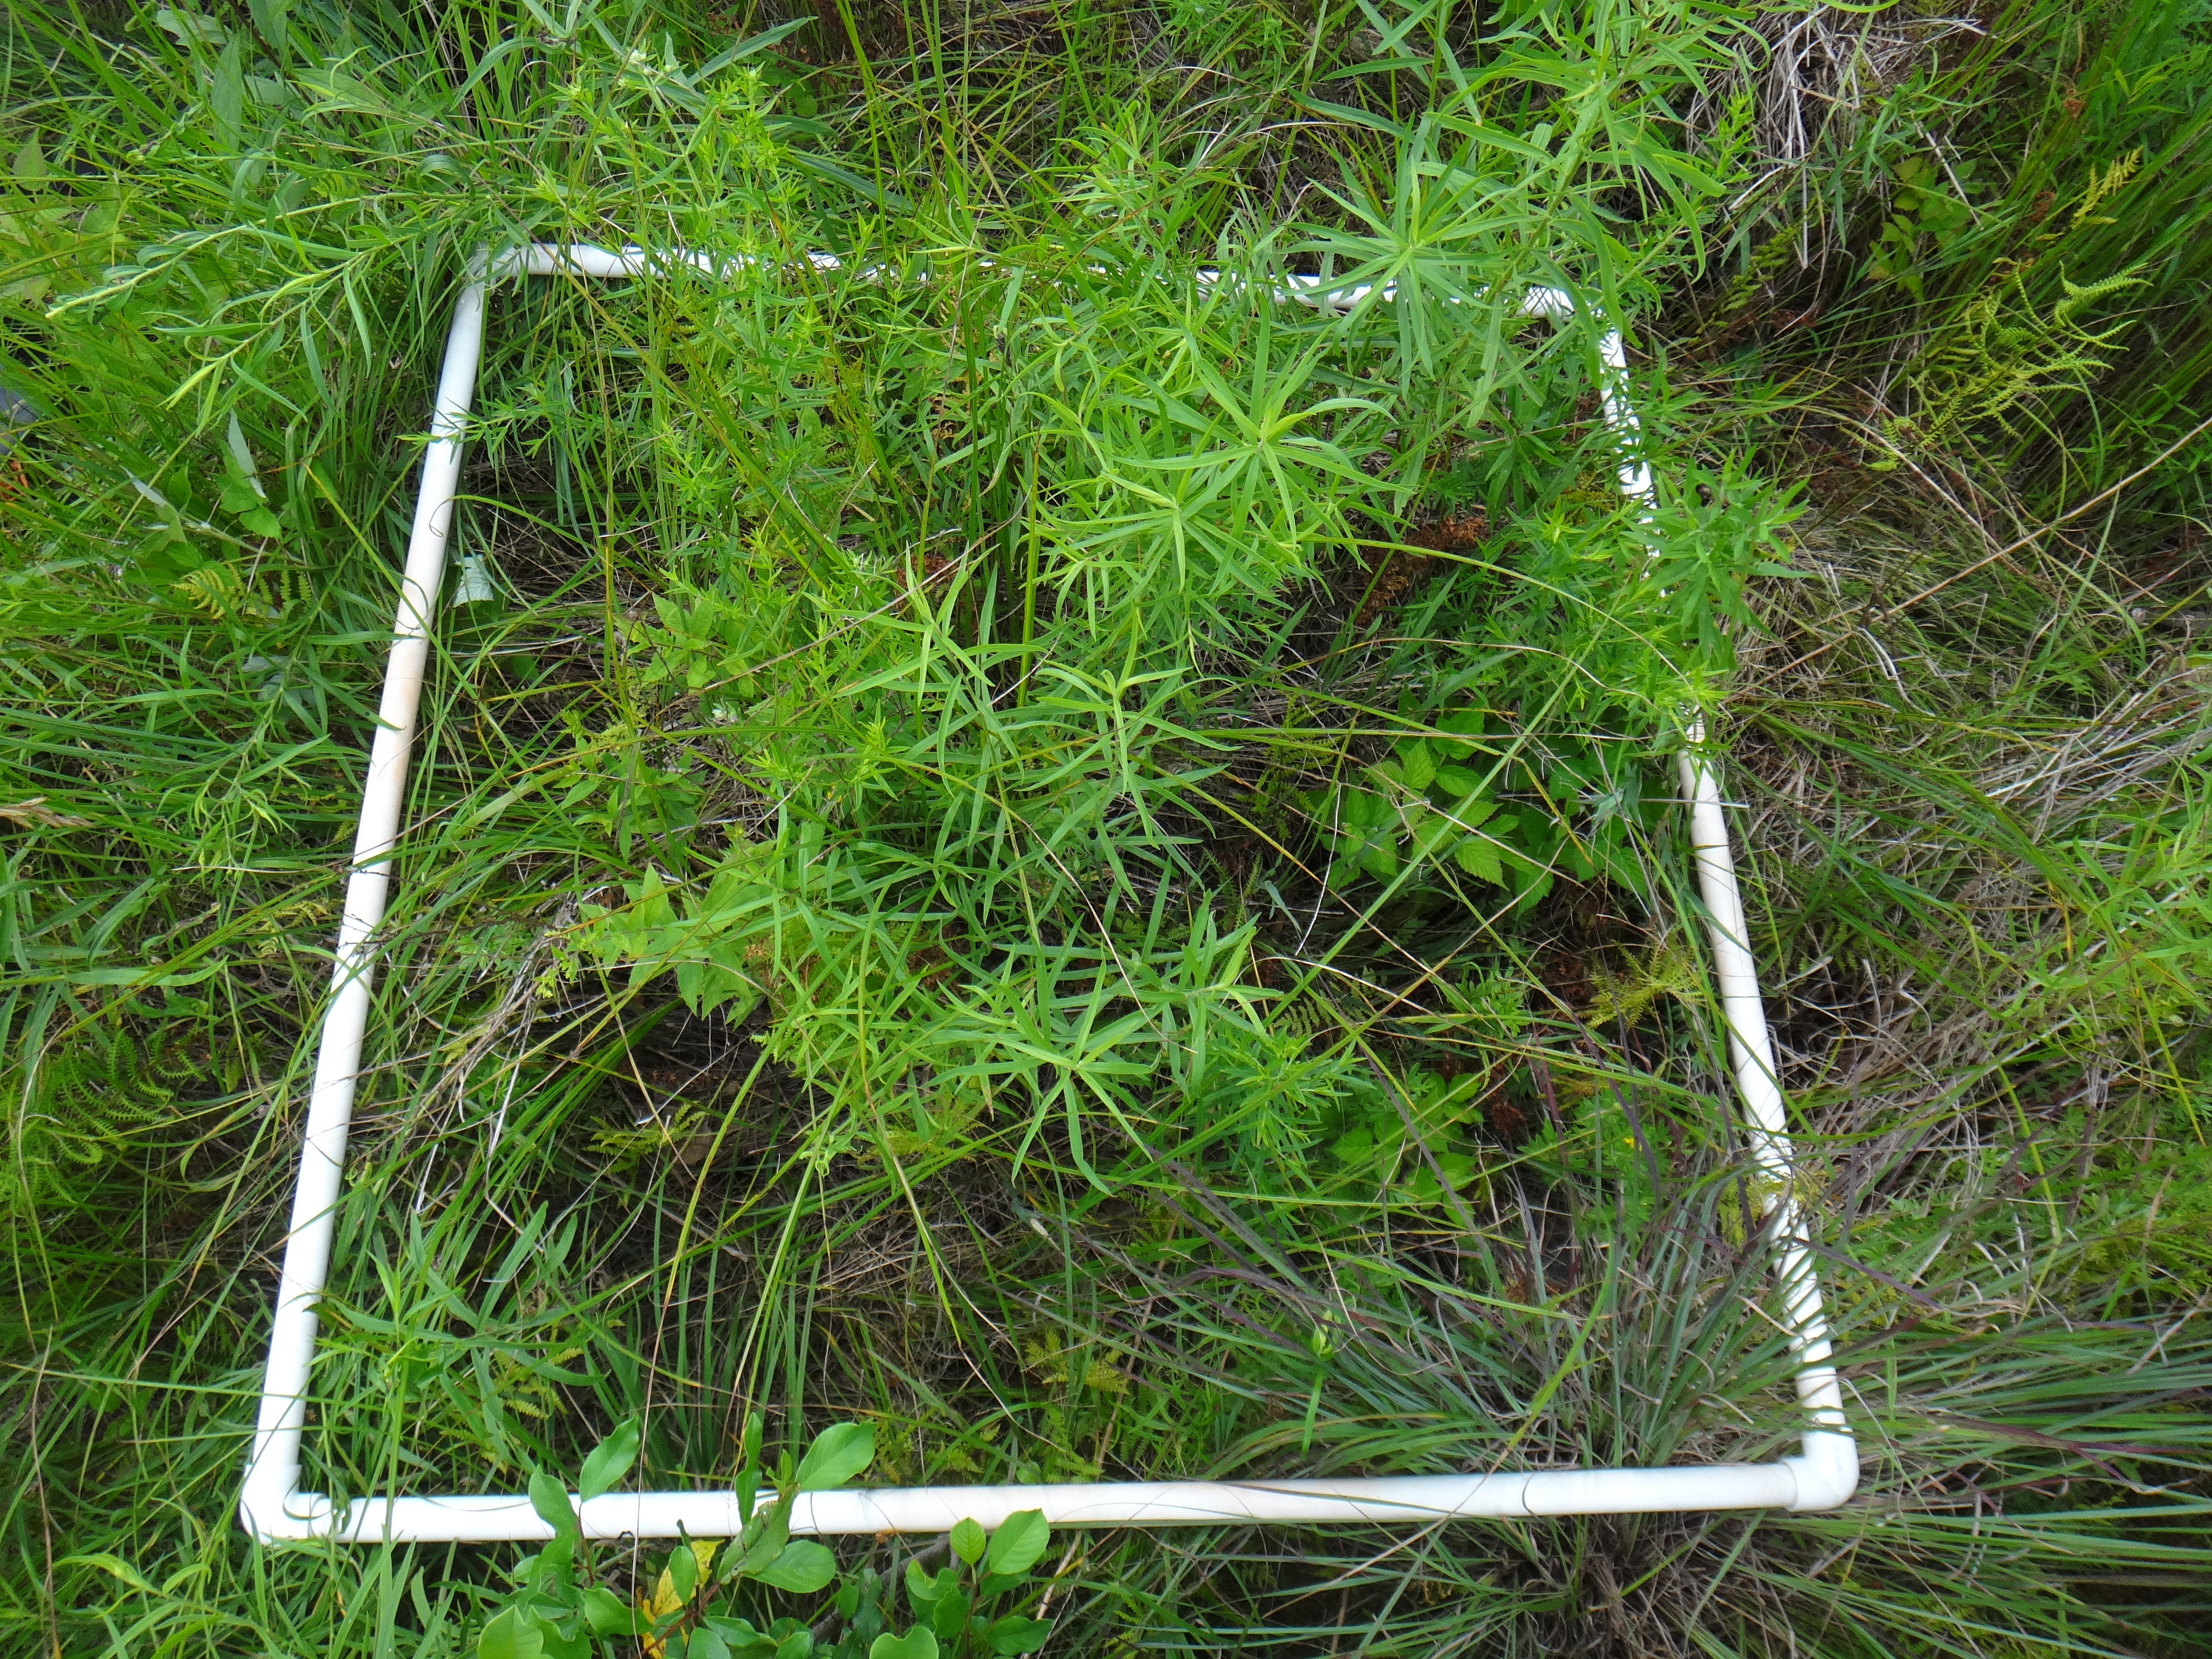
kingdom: Plantae
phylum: Tracheophyta
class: Liliopsida
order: Poales
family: Poaceae
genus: Andropogon
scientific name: Andropogon gerardi
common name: Big bluestem
